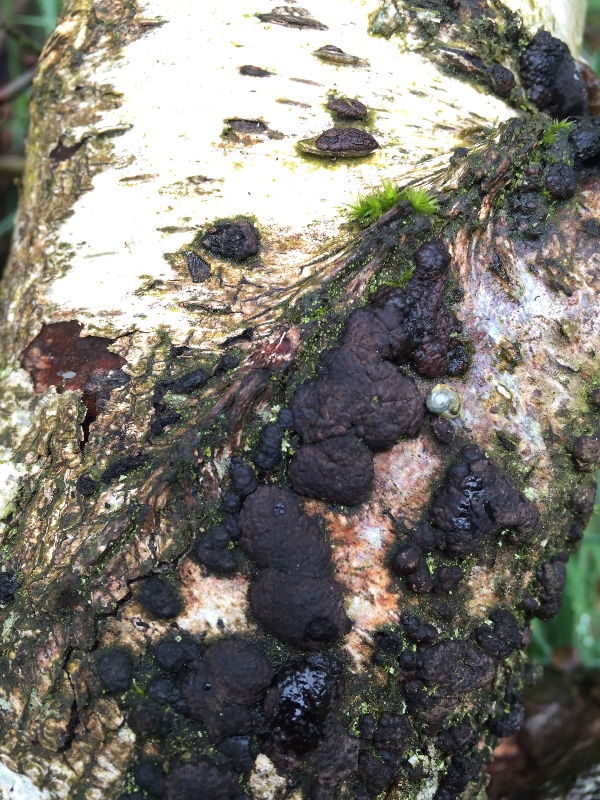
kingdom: Fungi
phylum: Ascomycota
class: Sordariomycetes
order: Xylariales
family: Hypoxylaceae
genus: Jackrogersella
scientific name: Jackrogersella multiformis
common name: foranderlig kulbær
